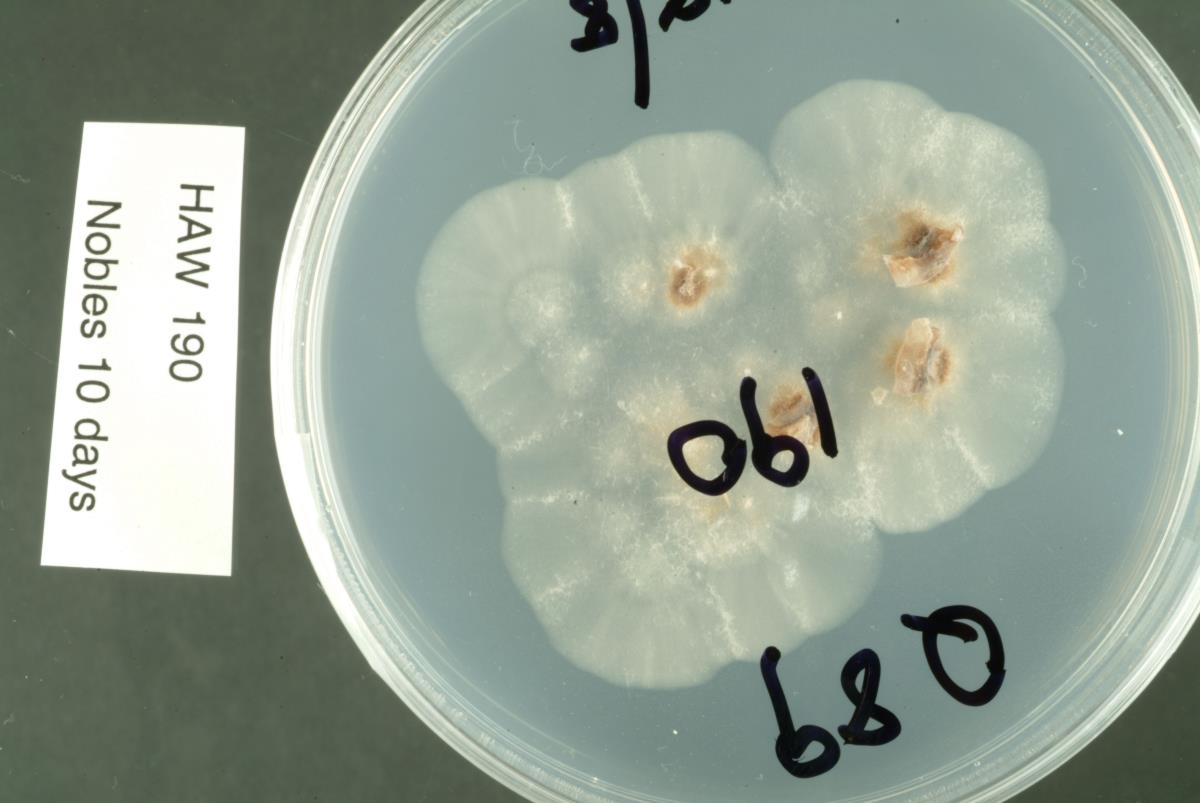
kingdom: Fungi
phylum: Ascomycota
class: Leotiomycetes
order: Chaetomellales
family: Marthamycetaceae
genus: Marthamyces
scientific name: Marthamyces
